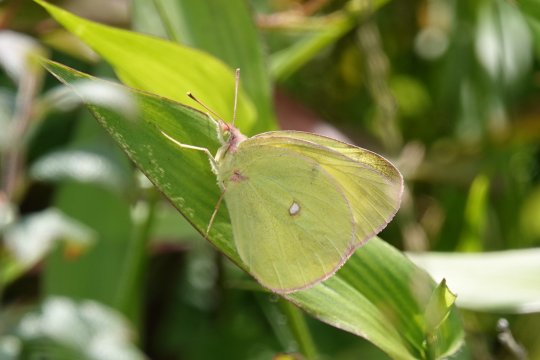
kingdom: Animalia
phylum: Arthropoda
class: Insecta
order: Lepidoptera
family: Pieridae
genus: Colias
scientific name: Colias interior
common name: Pink-edged Sulphur
